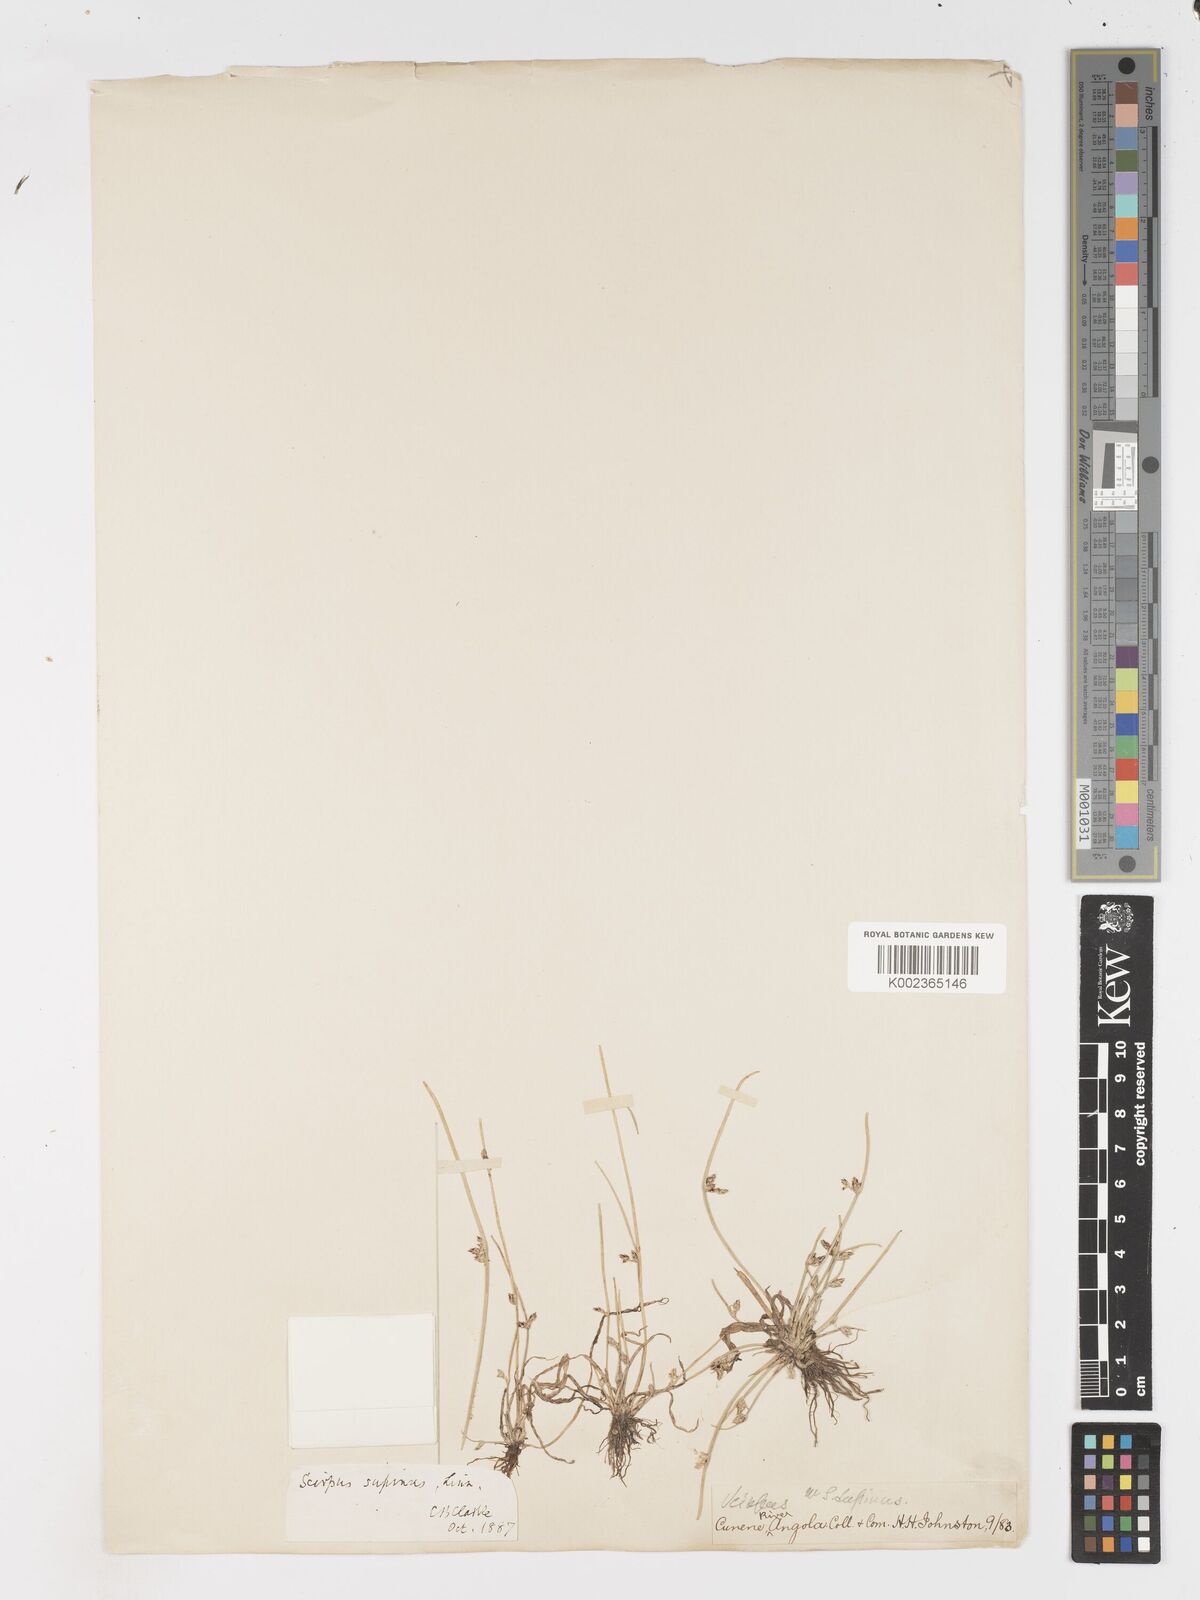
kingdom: Plantae
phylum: Tracheophyta
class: Liliopsida
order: Poales
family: Cyperaceae
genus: Schoenoplectiella
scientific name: Schoenoplectiella lateriflora
